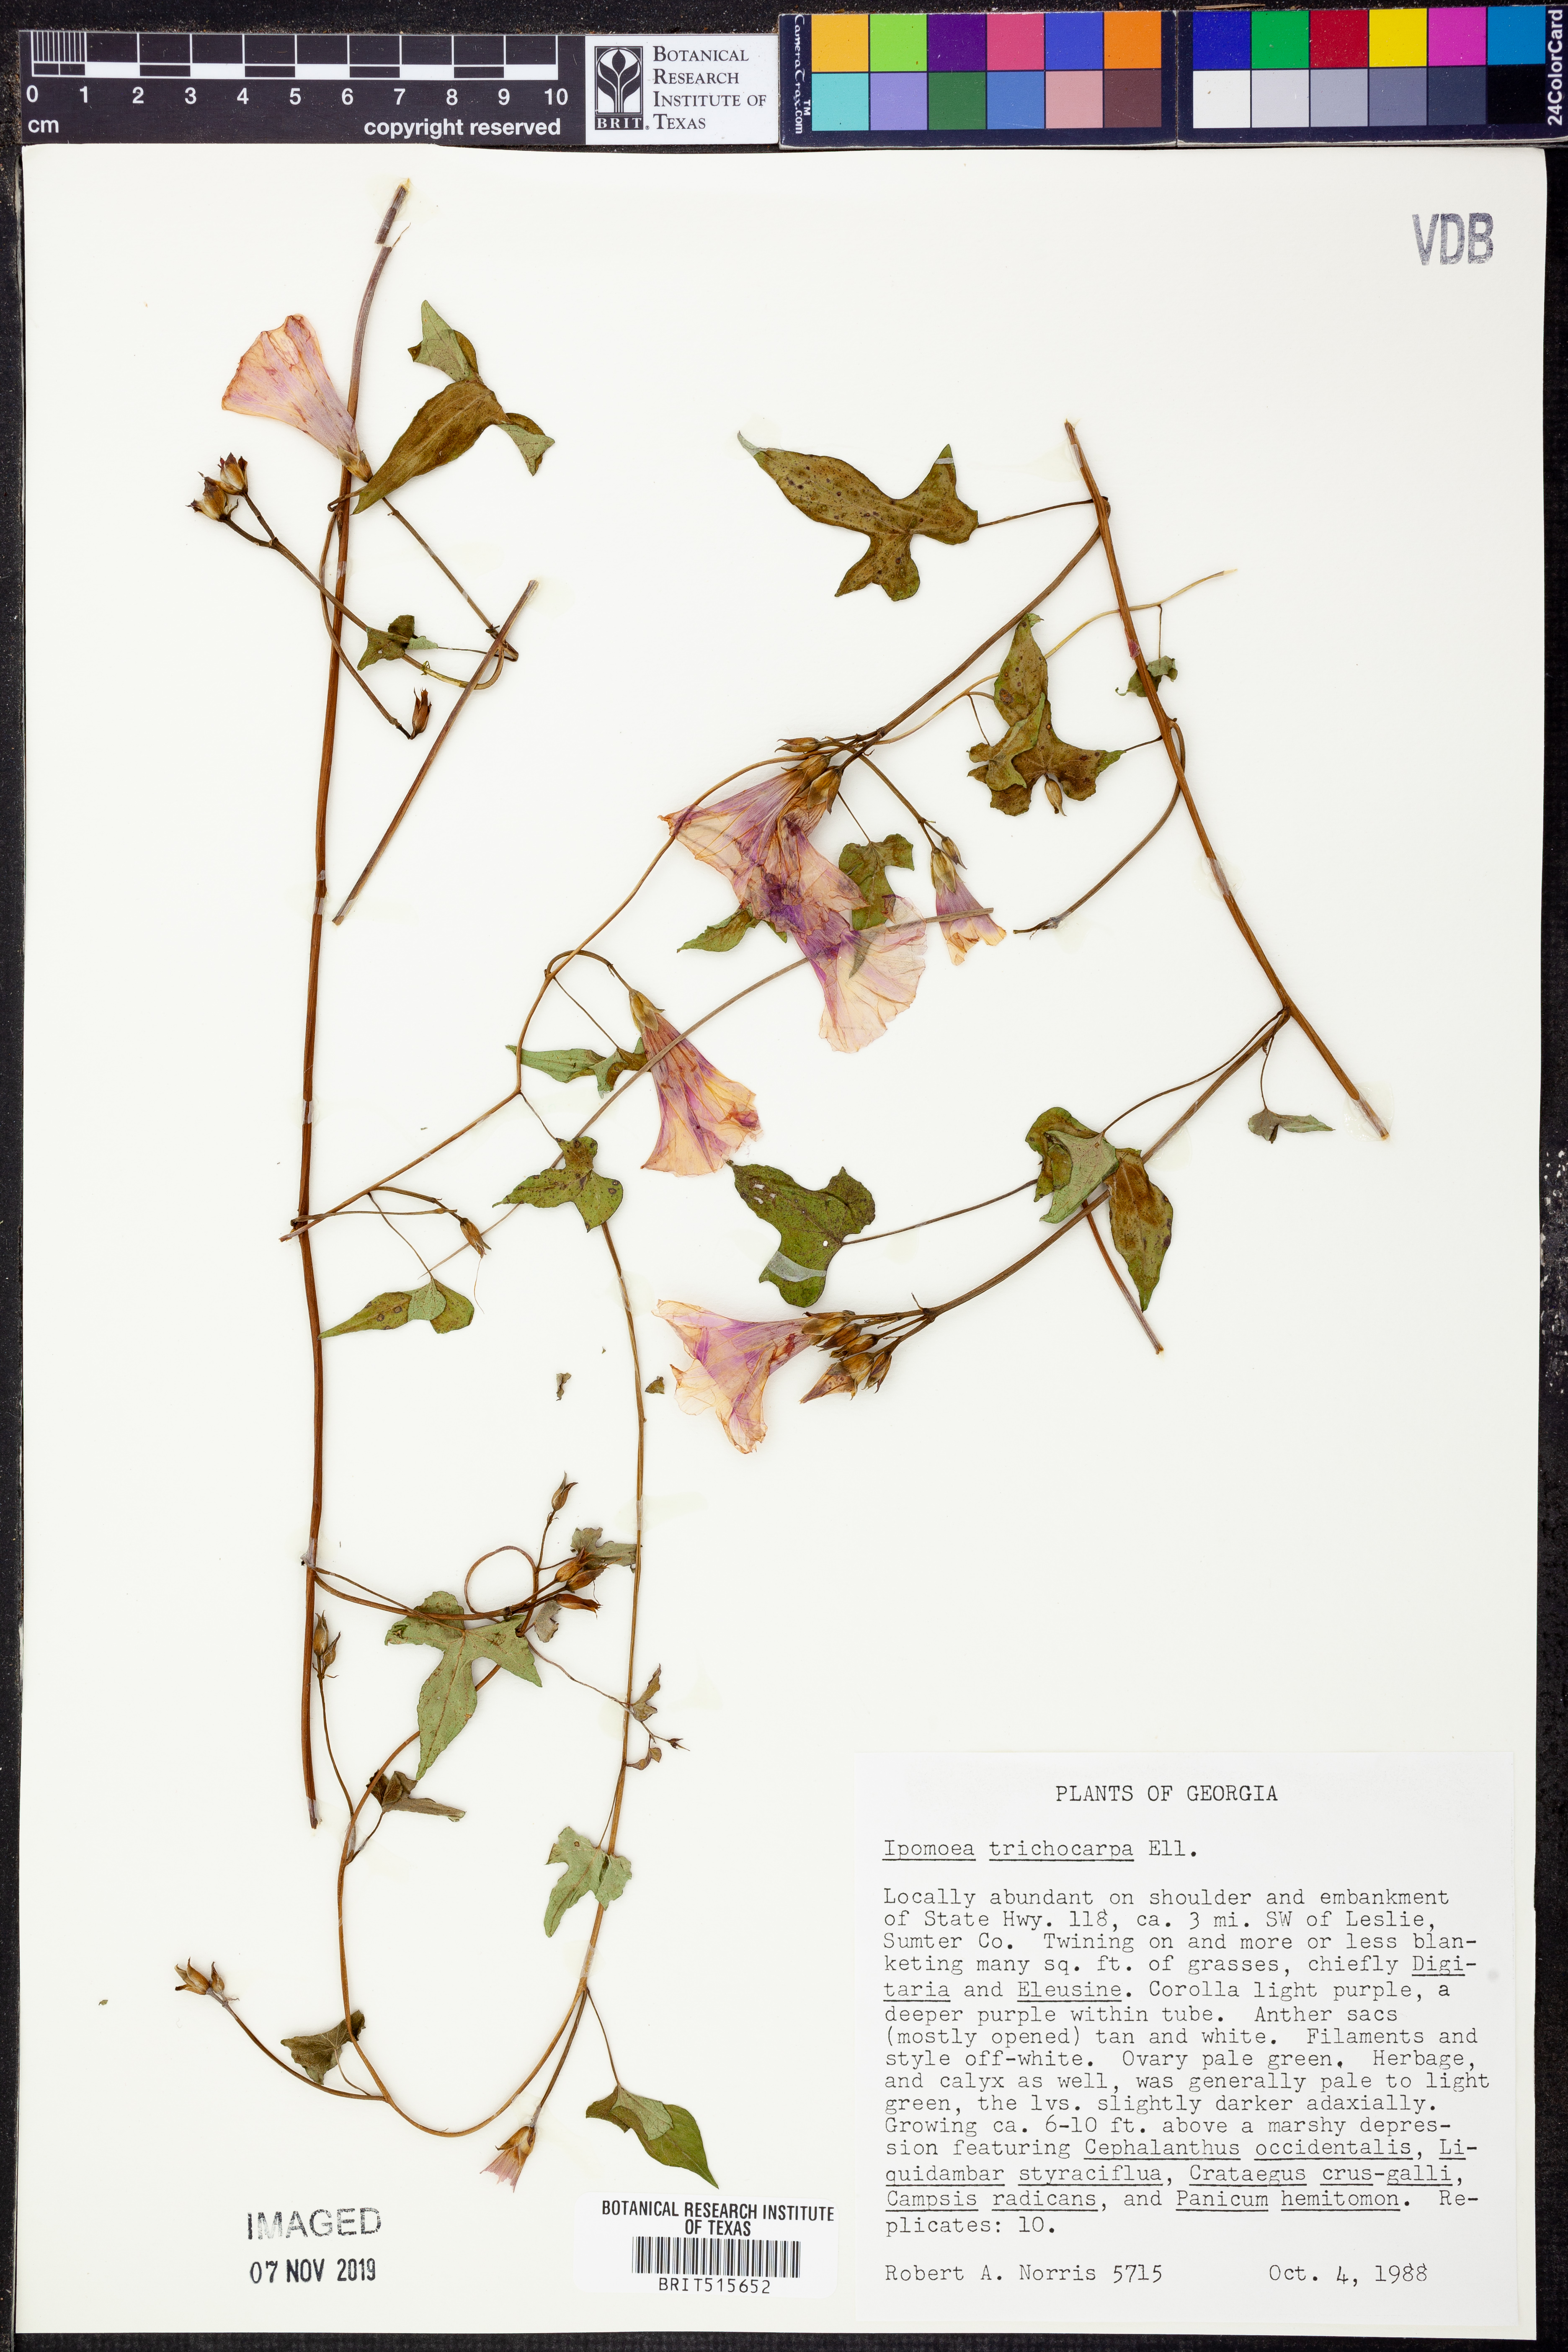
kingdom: Plantae
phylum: Tracheophyta
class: Magnoliopsida
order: Solanales
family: Convolvulaceae
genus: Ipomoea
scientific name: Ipomoea cordatotriloba
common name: Cotton morning glory
